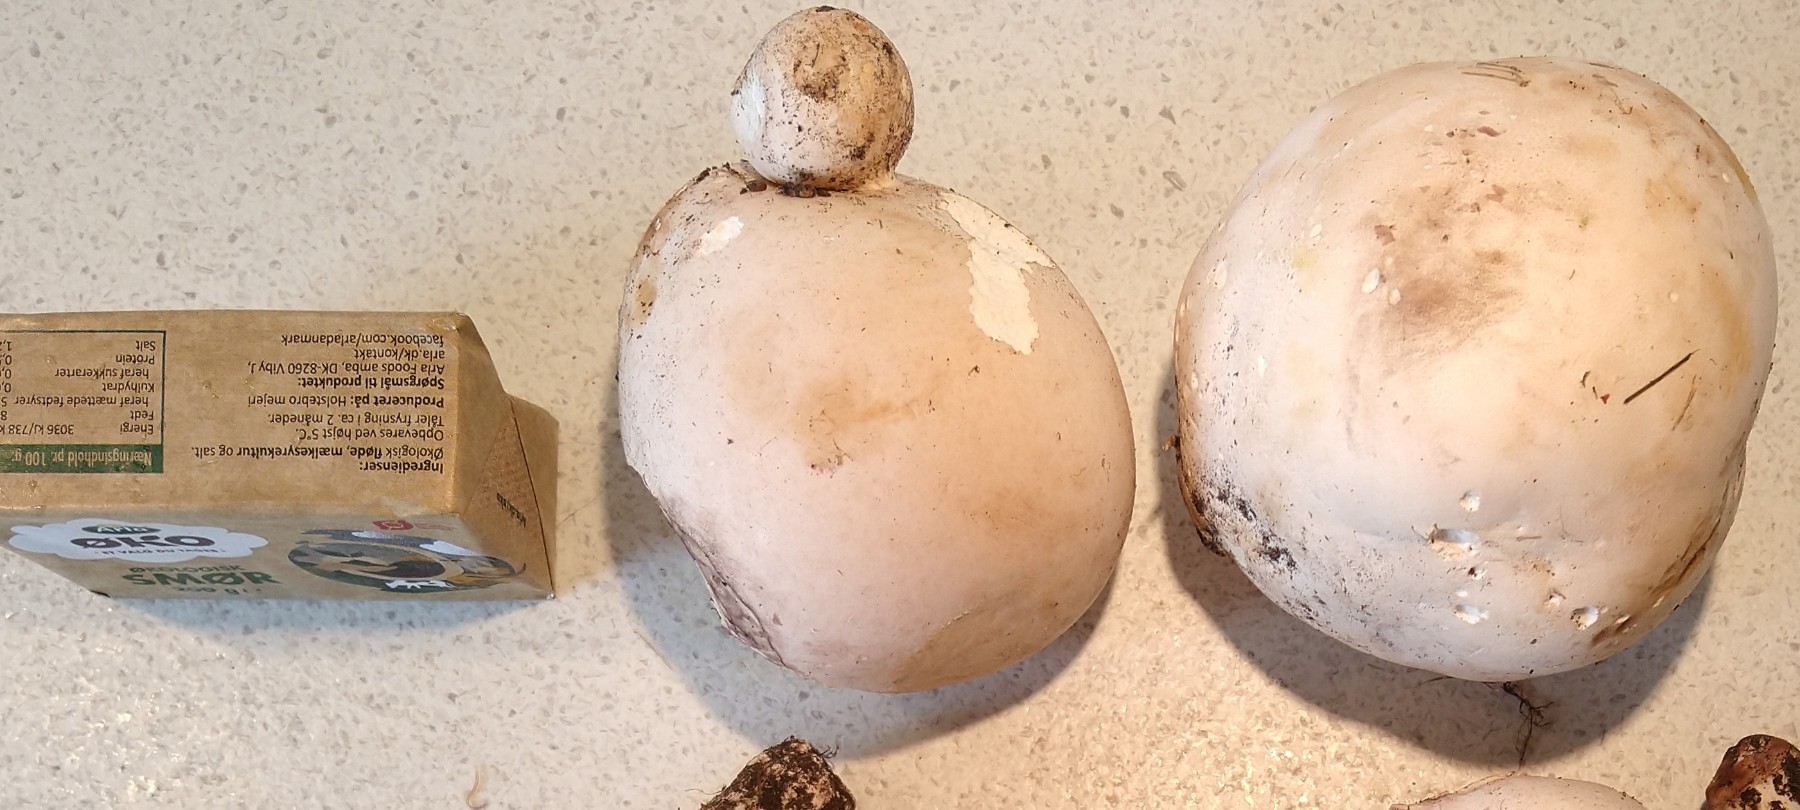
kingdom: Fungi
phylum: Basidiomycota
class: Agaricomycetes
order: Agaricales
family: Lycoperdaceae
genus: Calvatia
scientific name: Calvatia gigantea
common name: kæmpestøvbold
